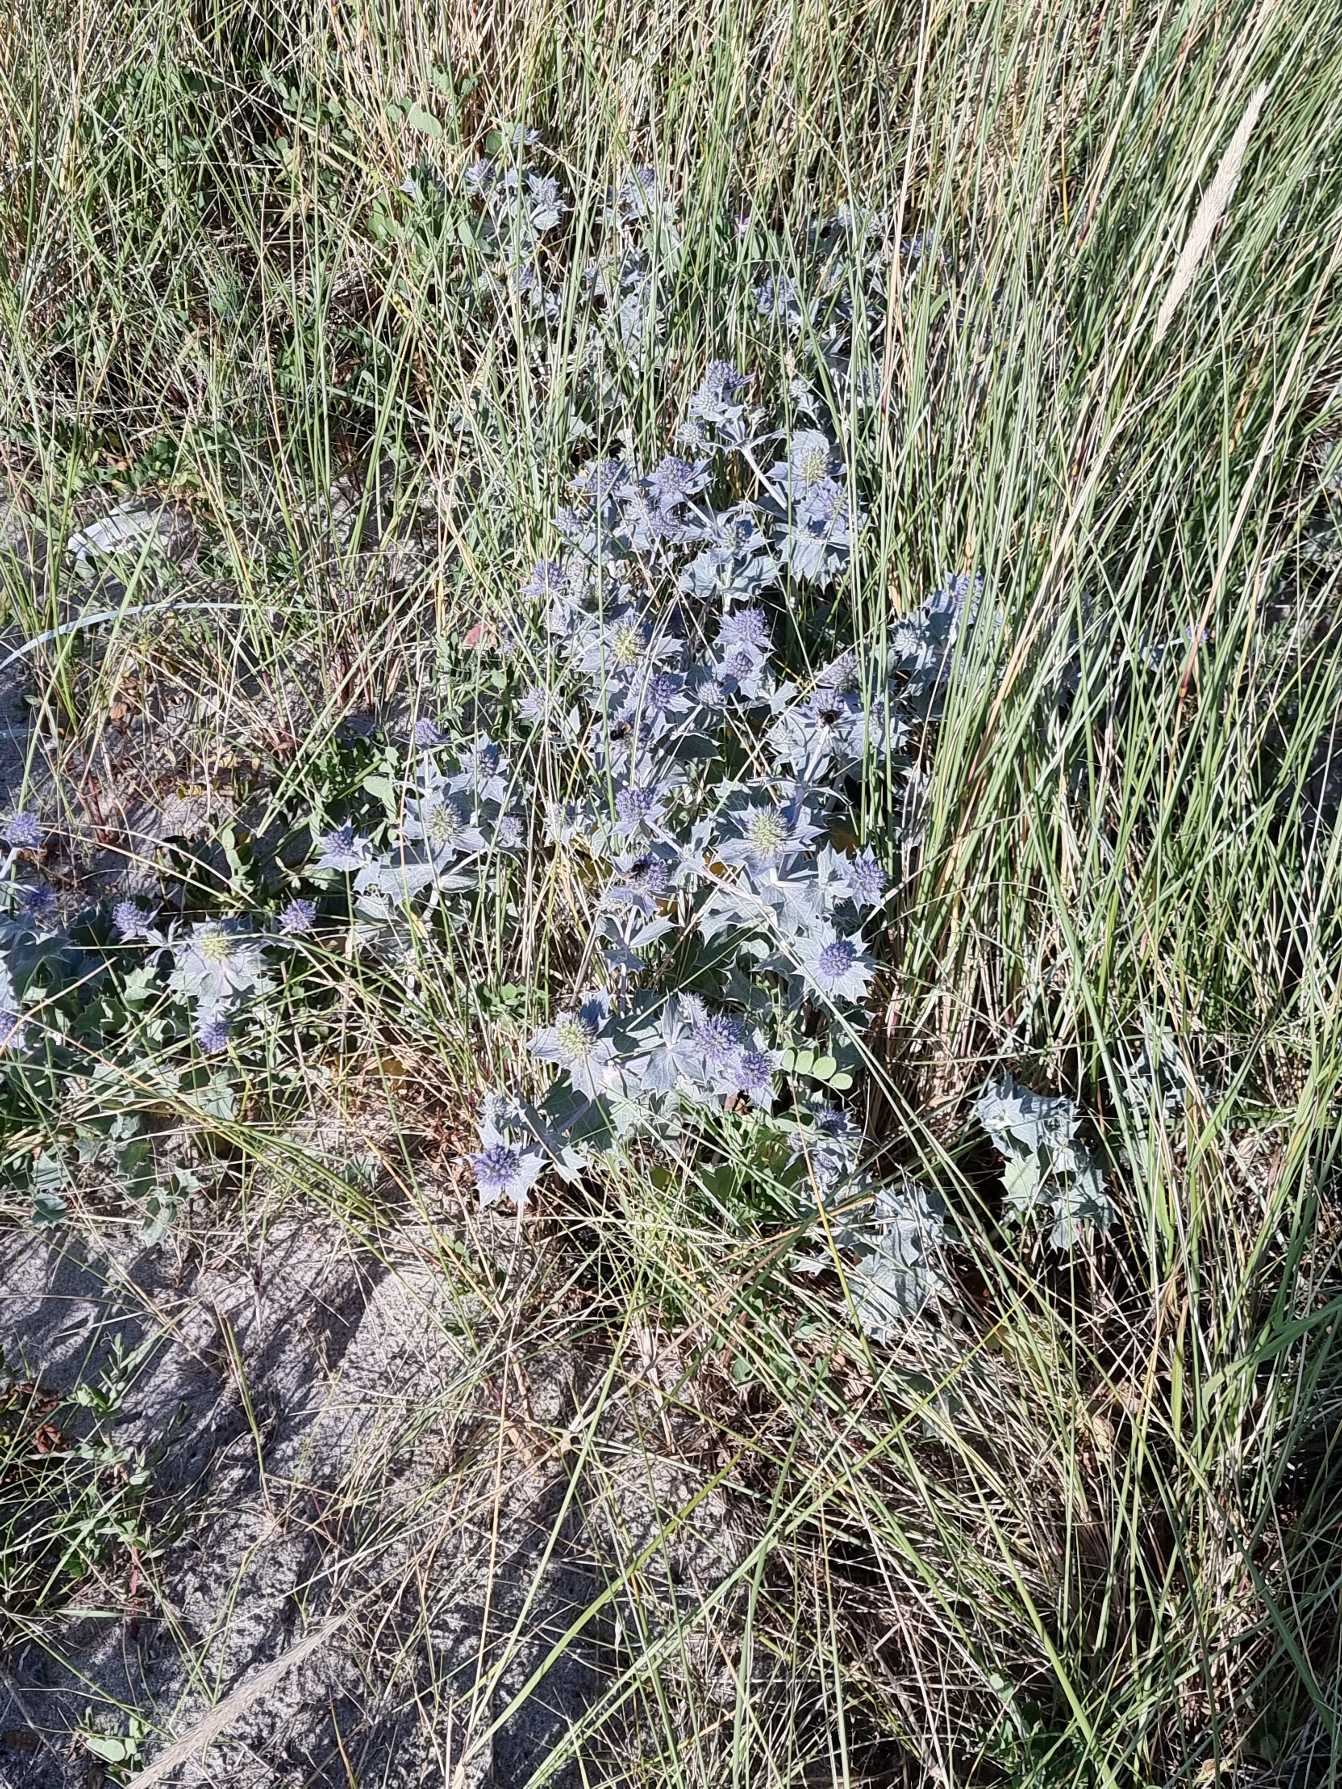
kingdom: Plantae
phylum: Tracheophyta
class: Magnoliopsida
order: Apiales
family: Apiaceae
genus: Eryngium
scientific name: Eryngium maritimum
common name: Strand-mandstro
